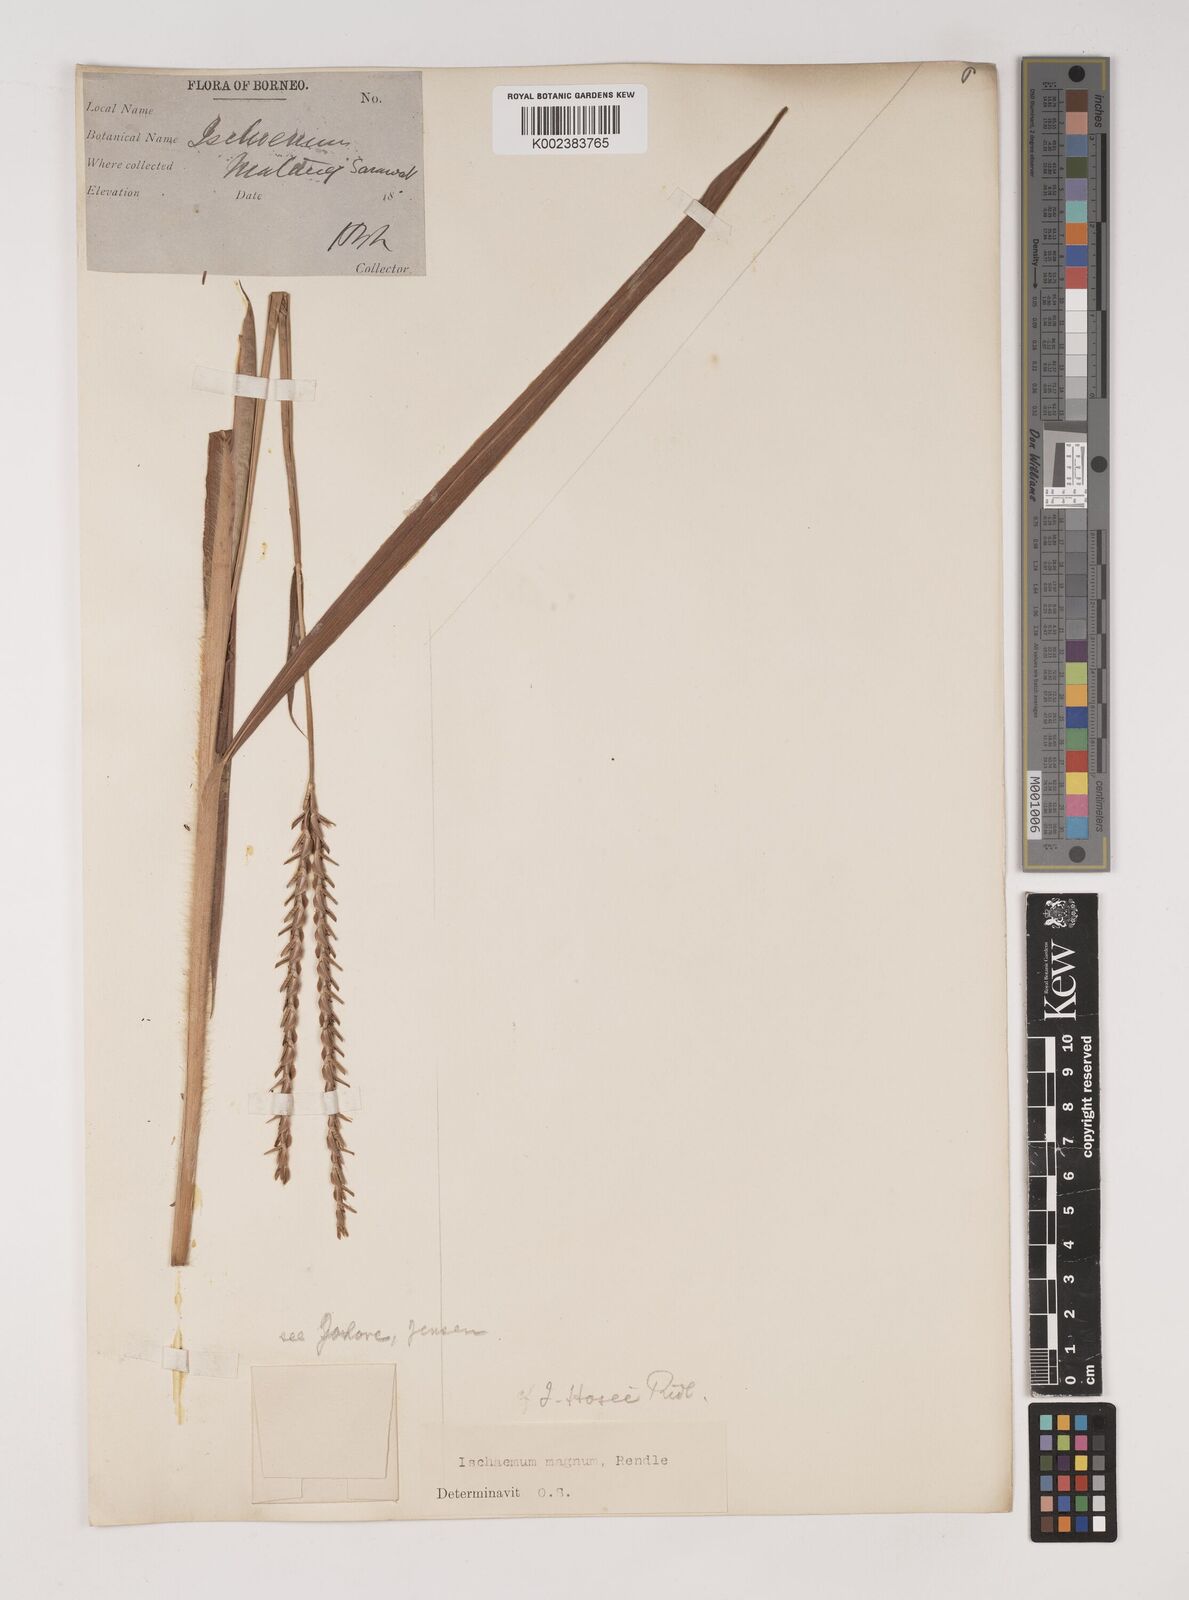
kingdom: Plantae
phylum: Tracheophyta
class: Liliopsida
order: Poales
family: Poaceae
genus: Ischaemum
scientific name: Ischaemum barbatum
